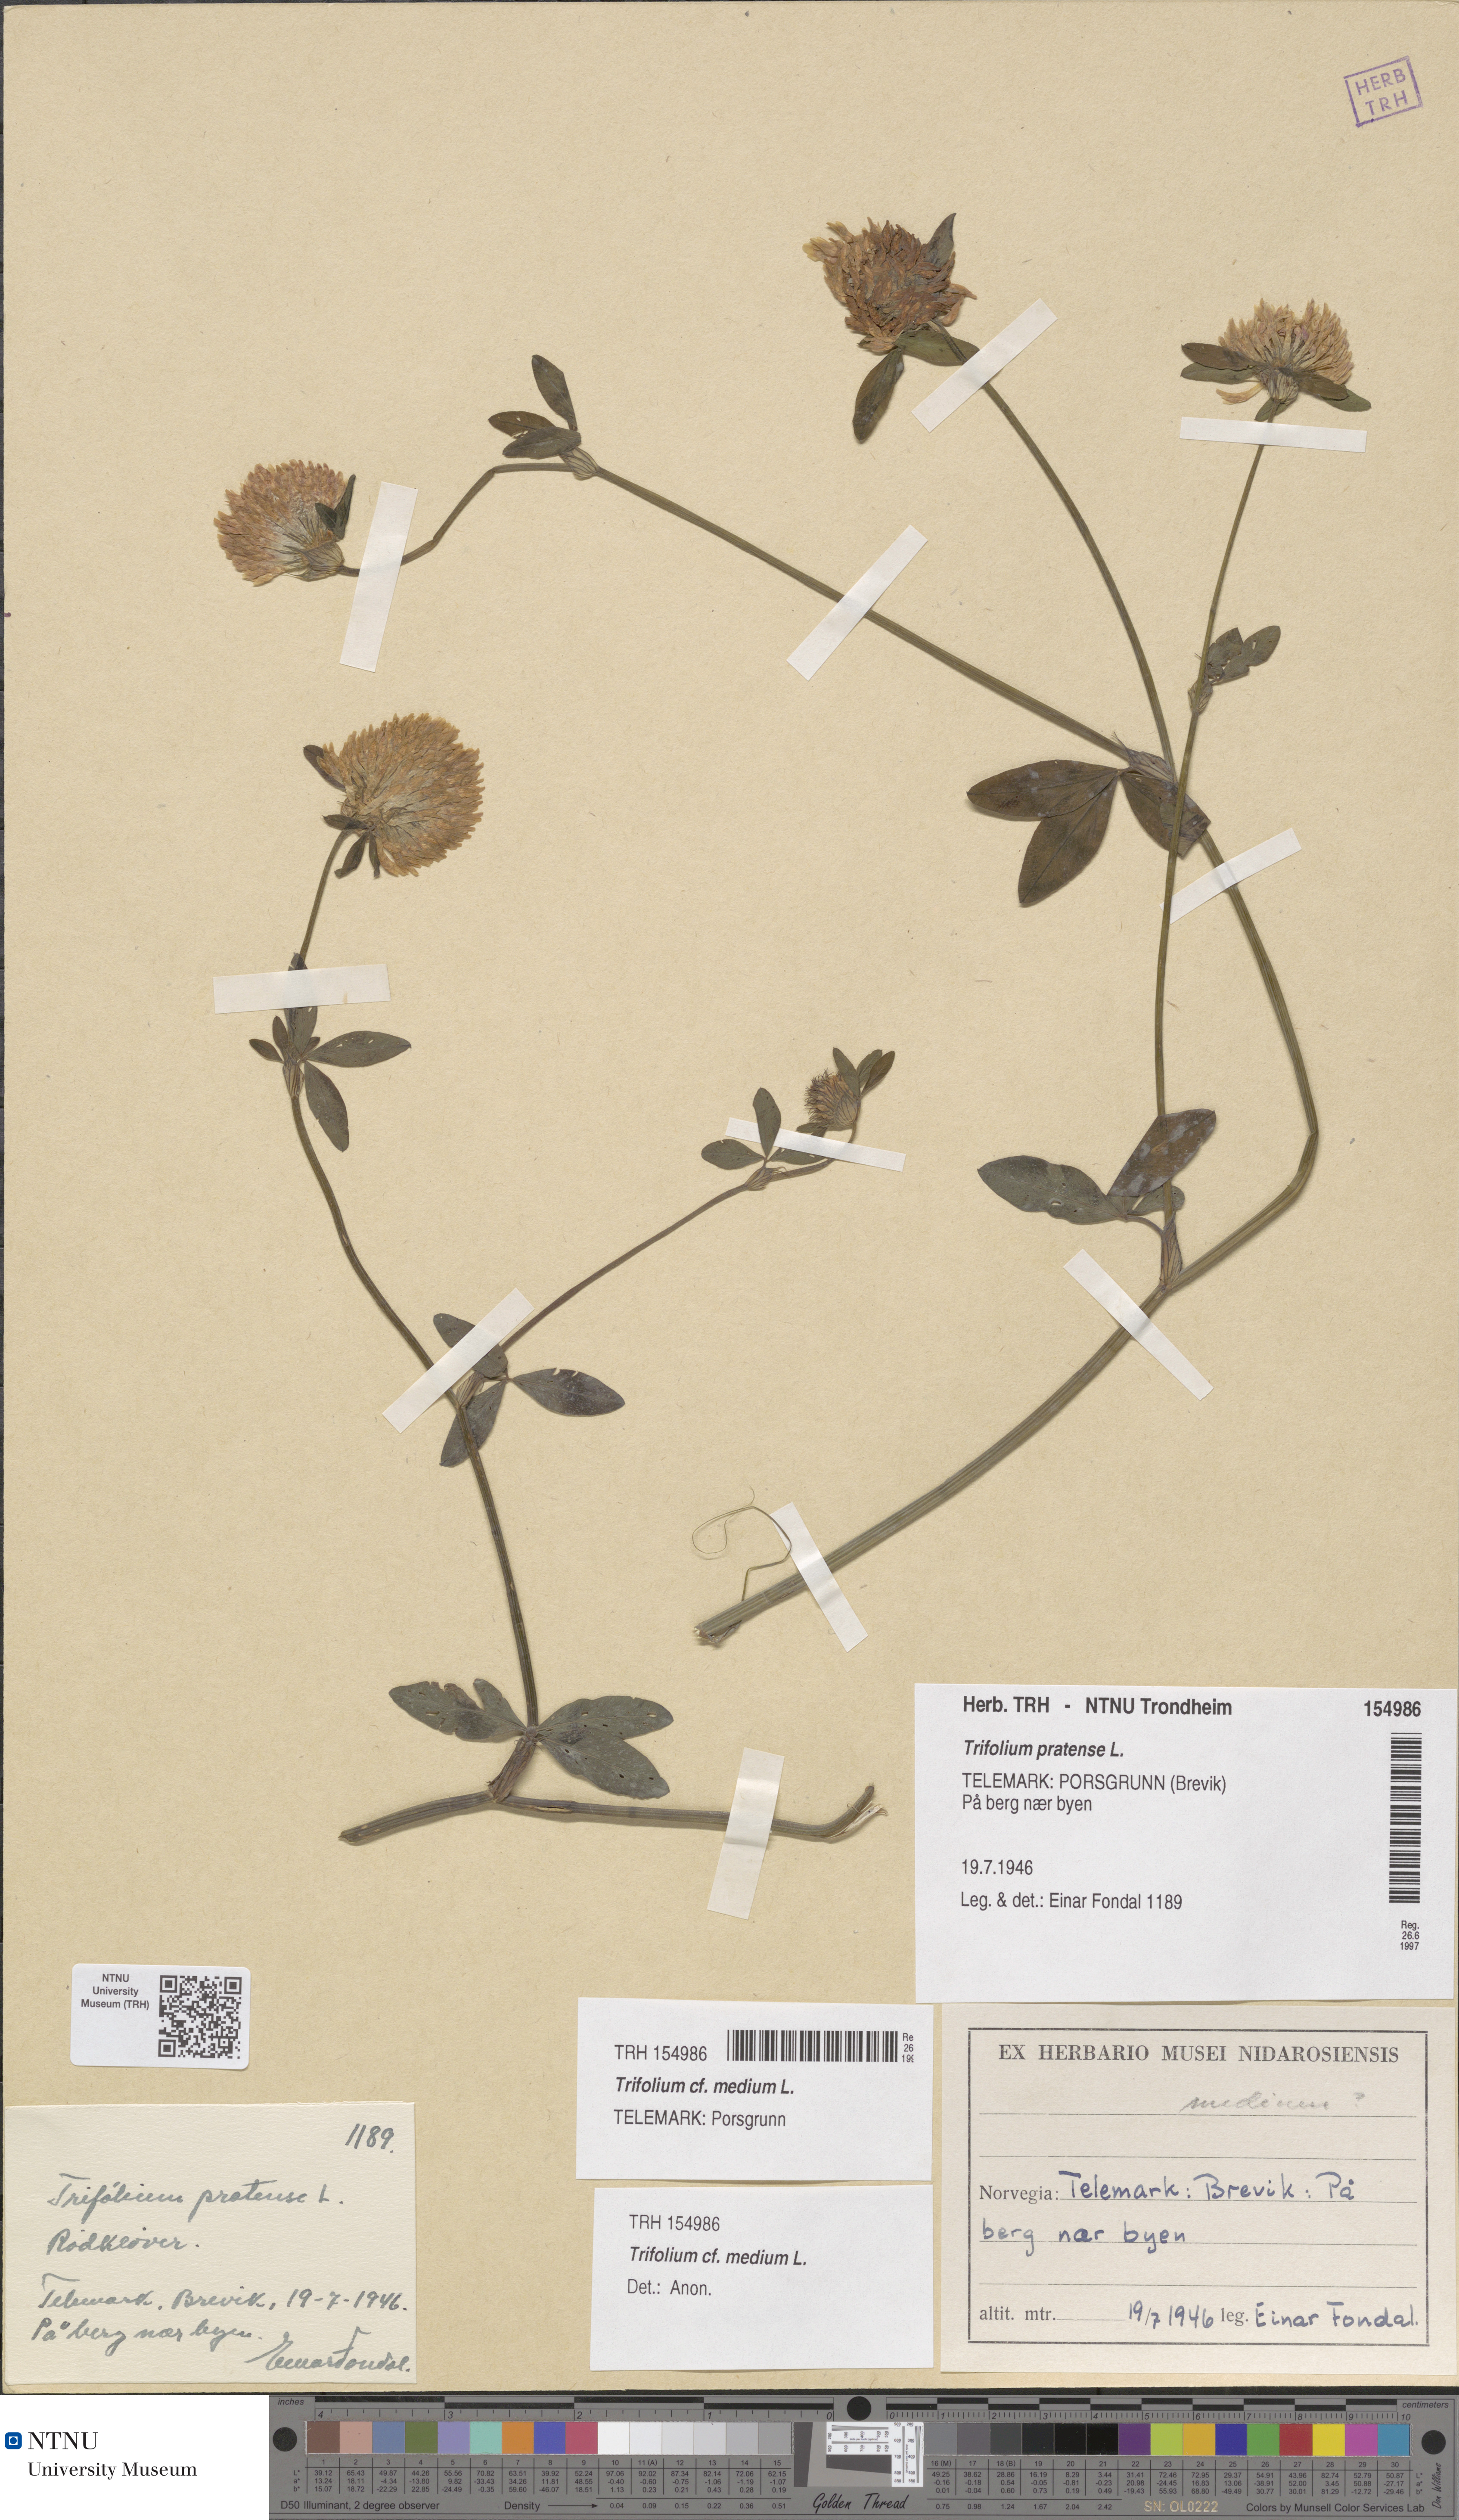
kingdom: Plantae
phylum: Tracheophyta
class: Magnoliopsida
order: Fabales
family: Fabaceae
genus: Trifolium
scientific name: Trifolium medium
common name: Zigzag clover
